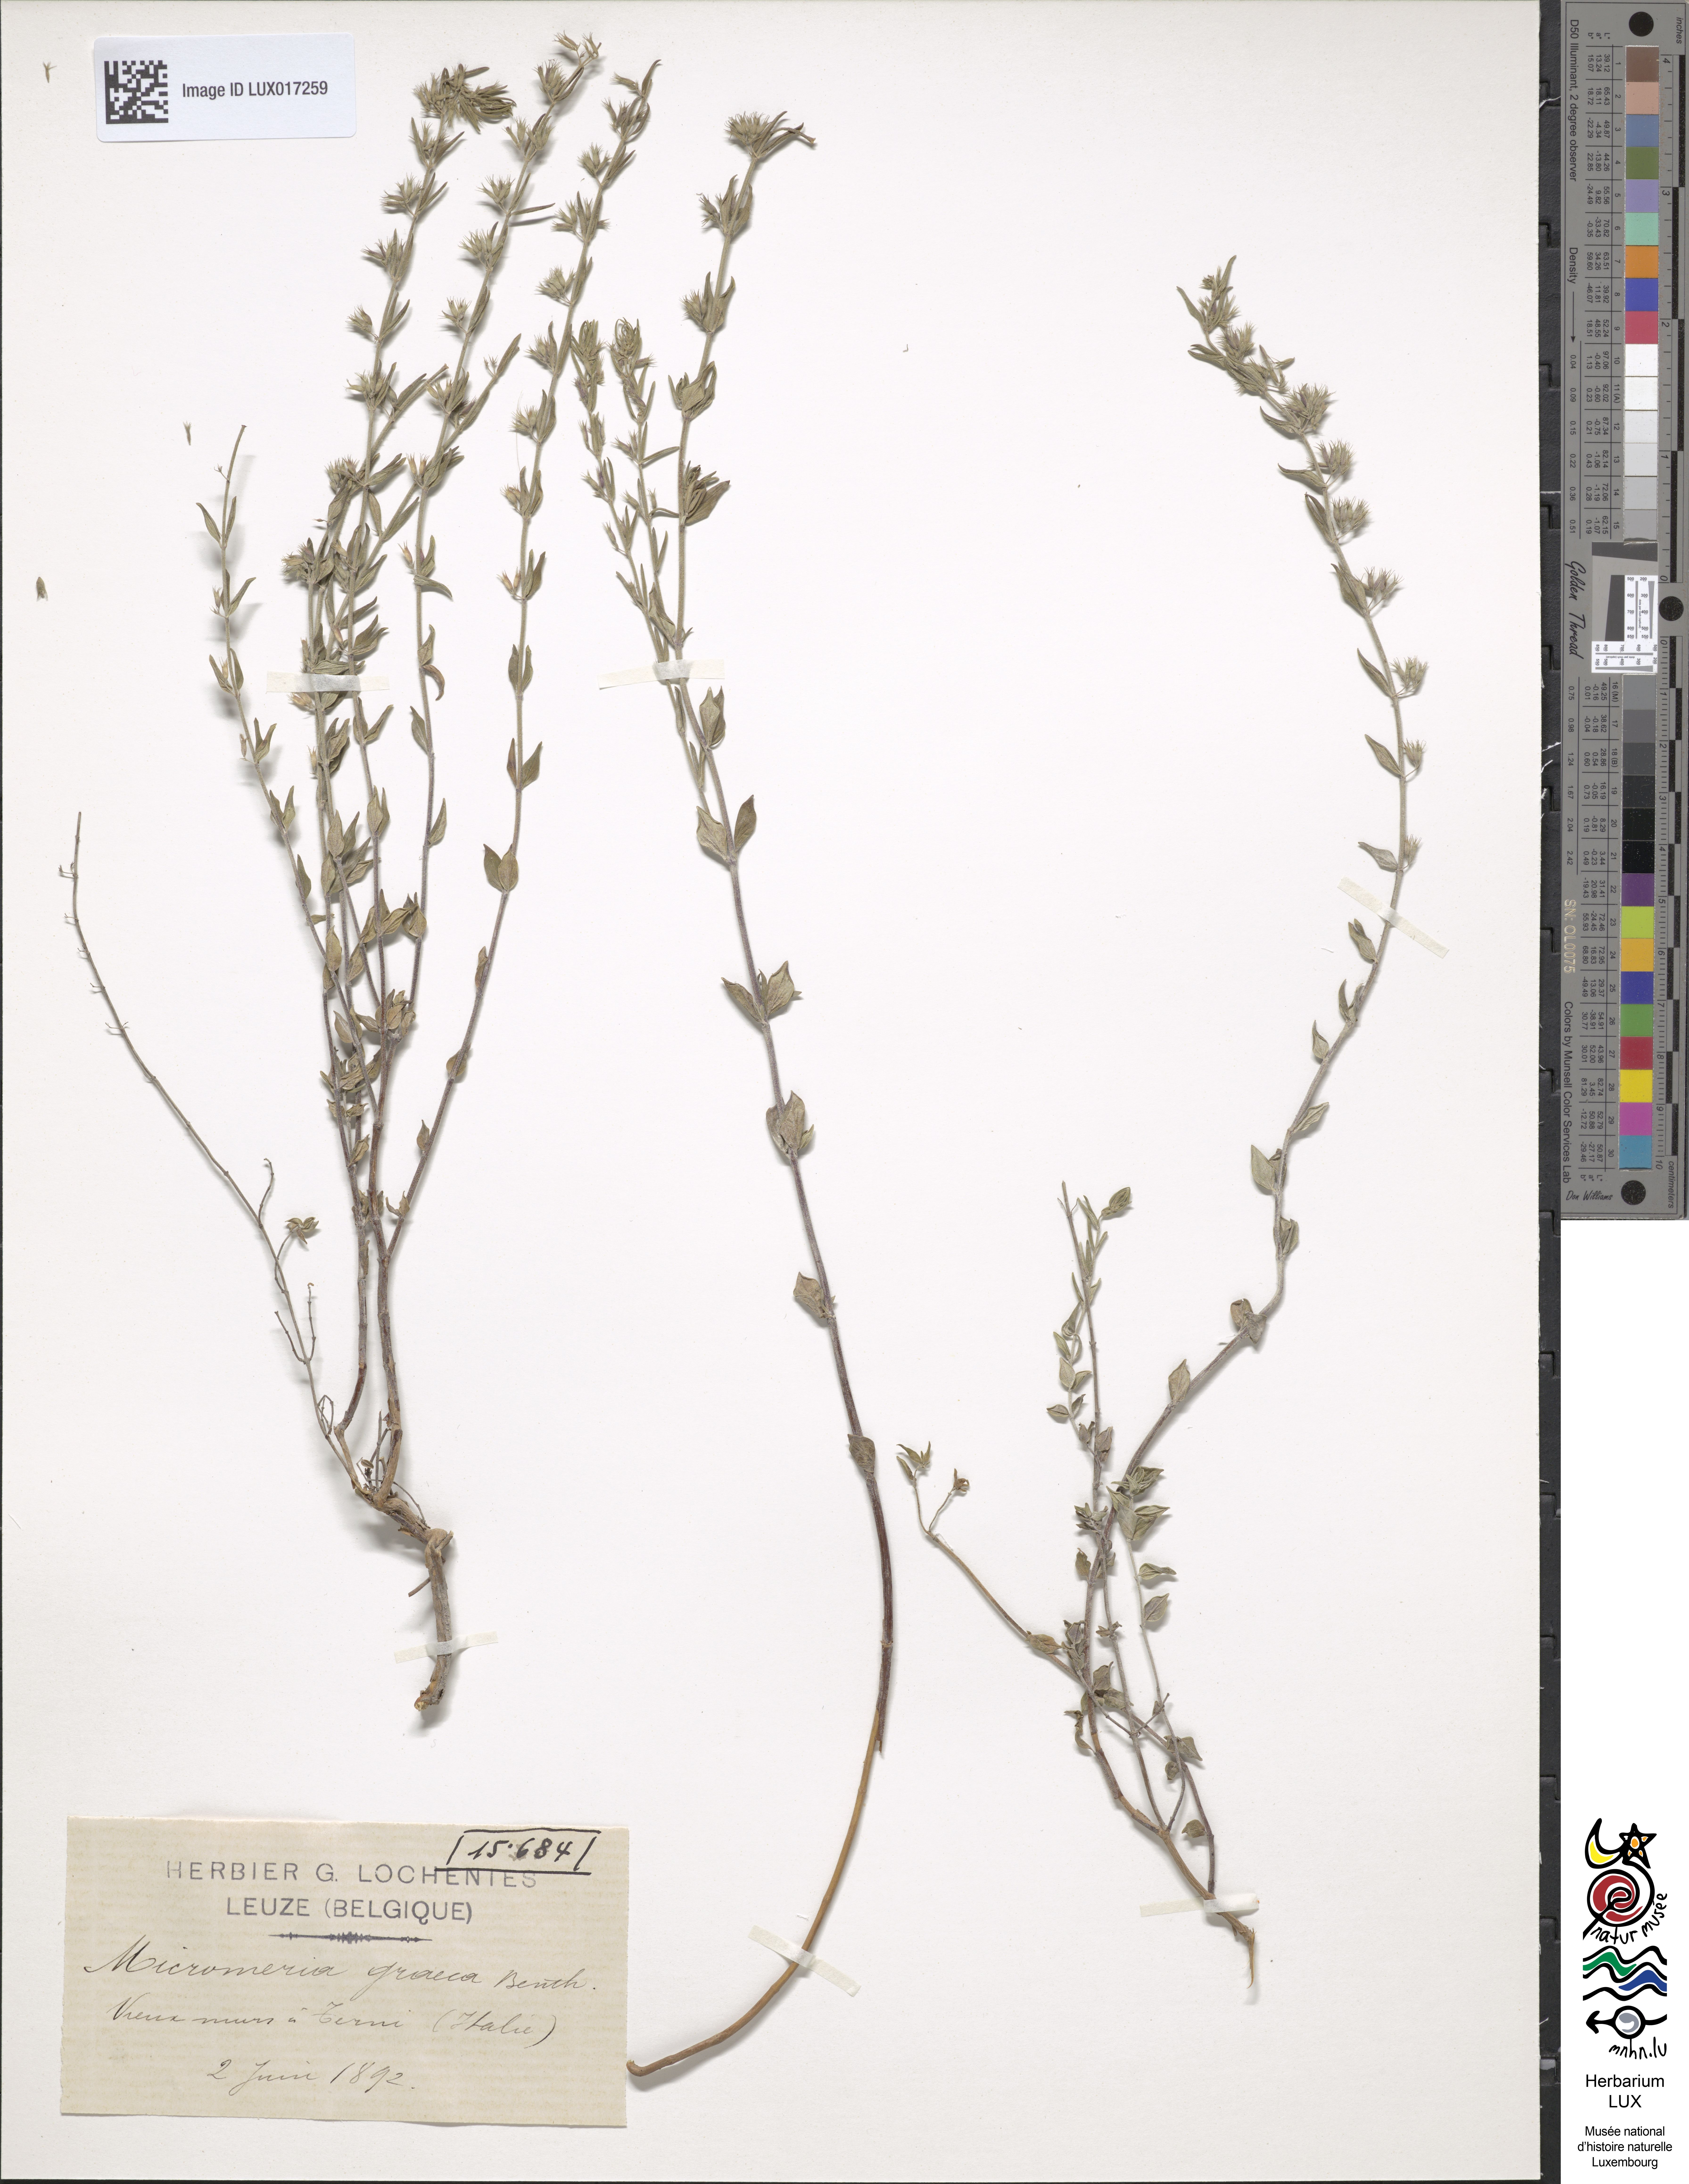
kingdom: Plantae
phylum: Tracheophyta
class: Magnoliopsida
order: Lamiales
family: Lamiaceae
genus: Micromeria
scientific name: Micromeria graeca
